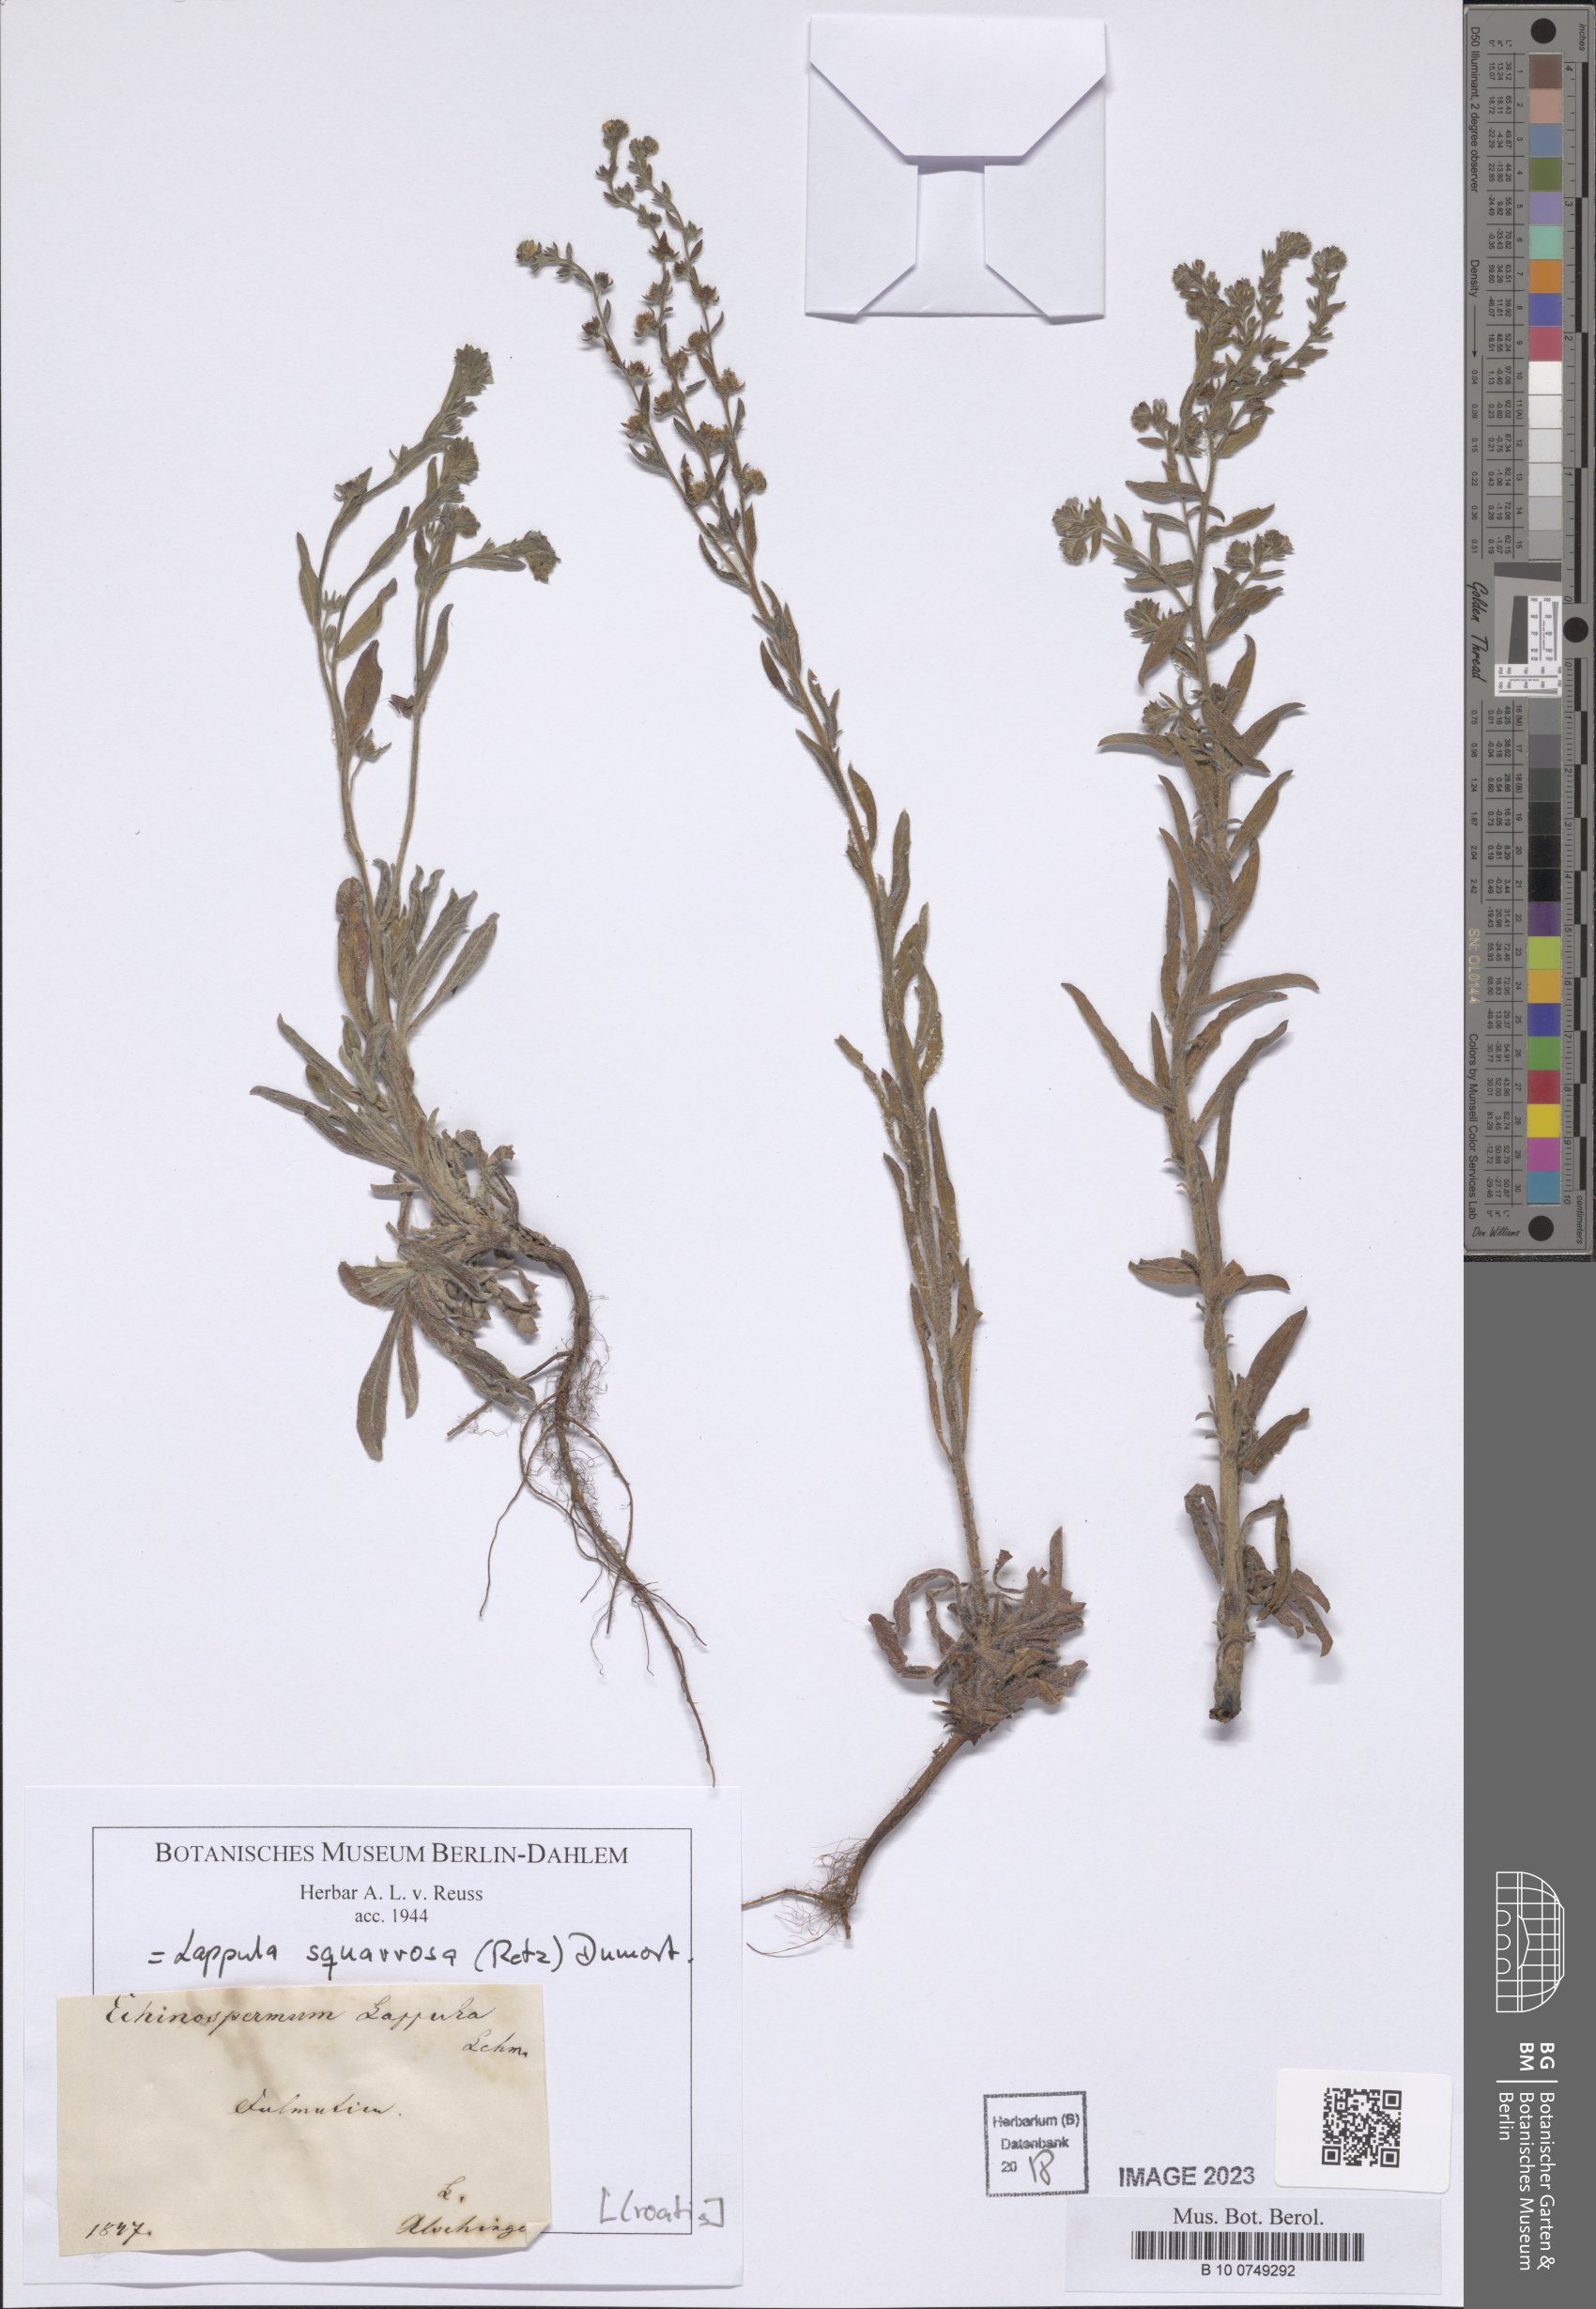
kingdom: Plantae
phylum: Tracheophyta
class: Magnoliopsida
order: Boraginales
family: Boraginaceae
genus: Lappula
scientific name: Lappula squarrosa
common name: European stickseed
